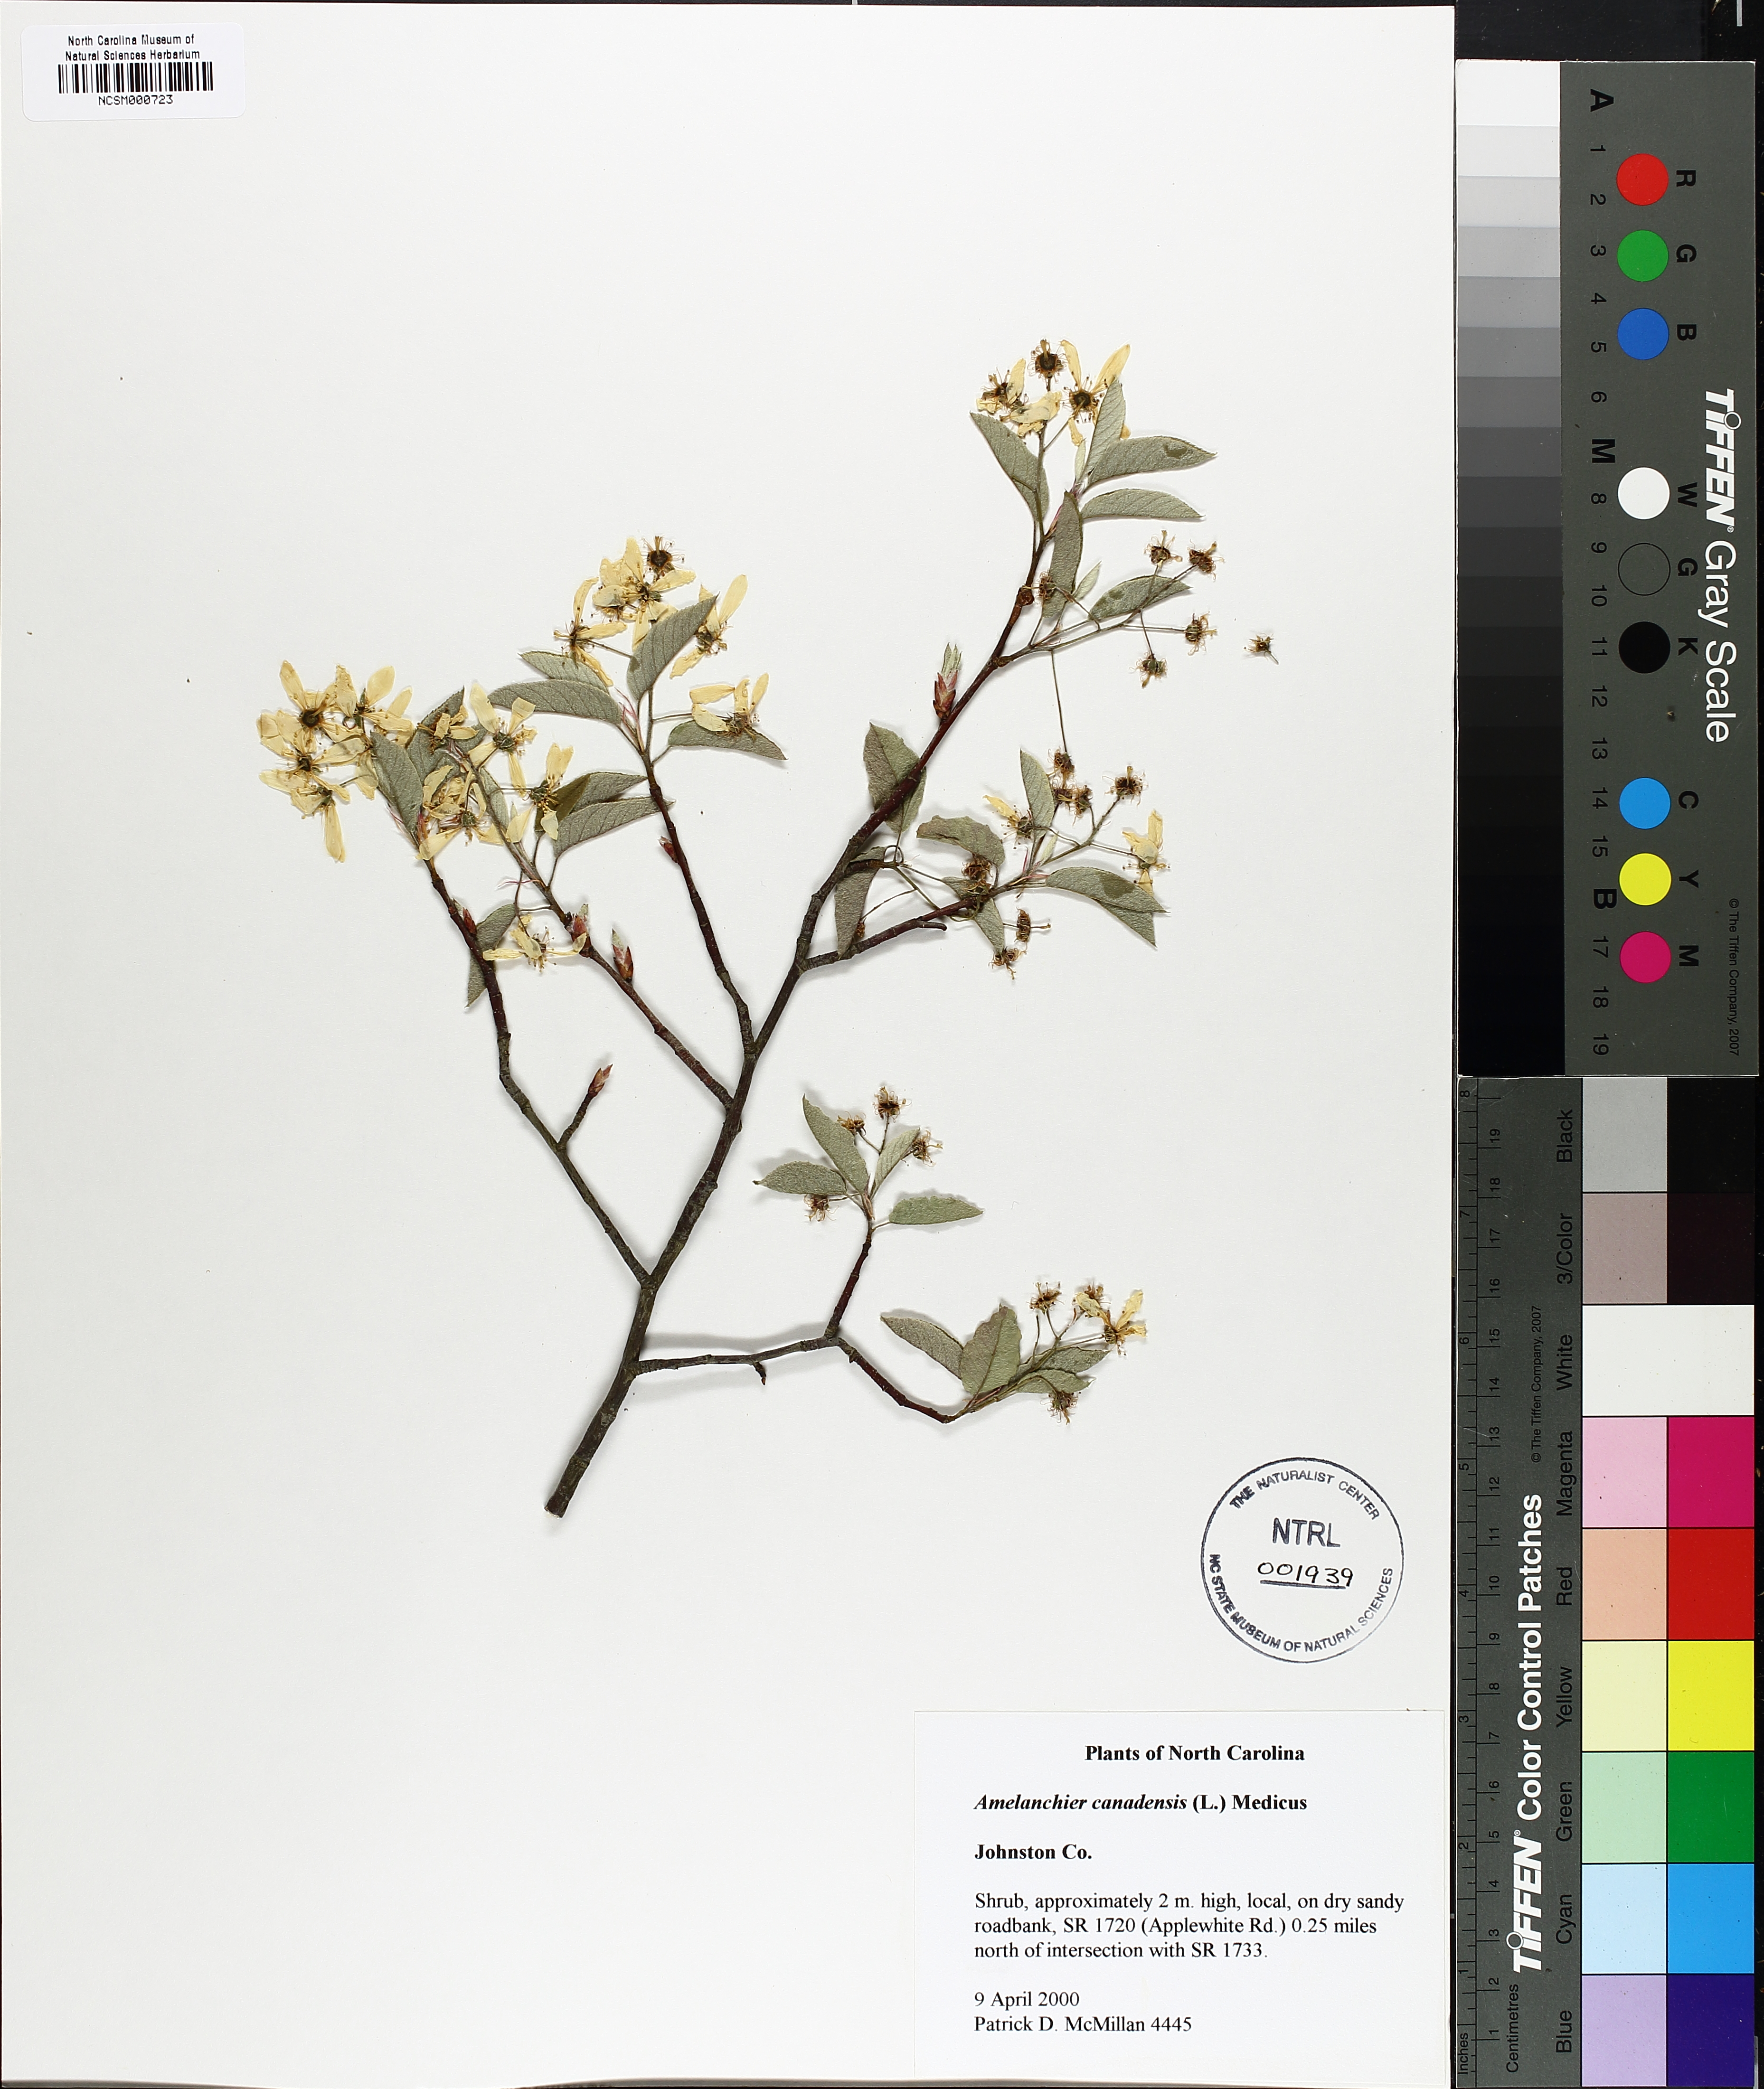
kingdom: Plantae
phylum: Tracheophyta
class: Magnoliopsida
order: Rosales
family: Rosaceae
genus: Amelanchier
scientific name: Amelanchier canadensis
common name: Thicket serviceberry
